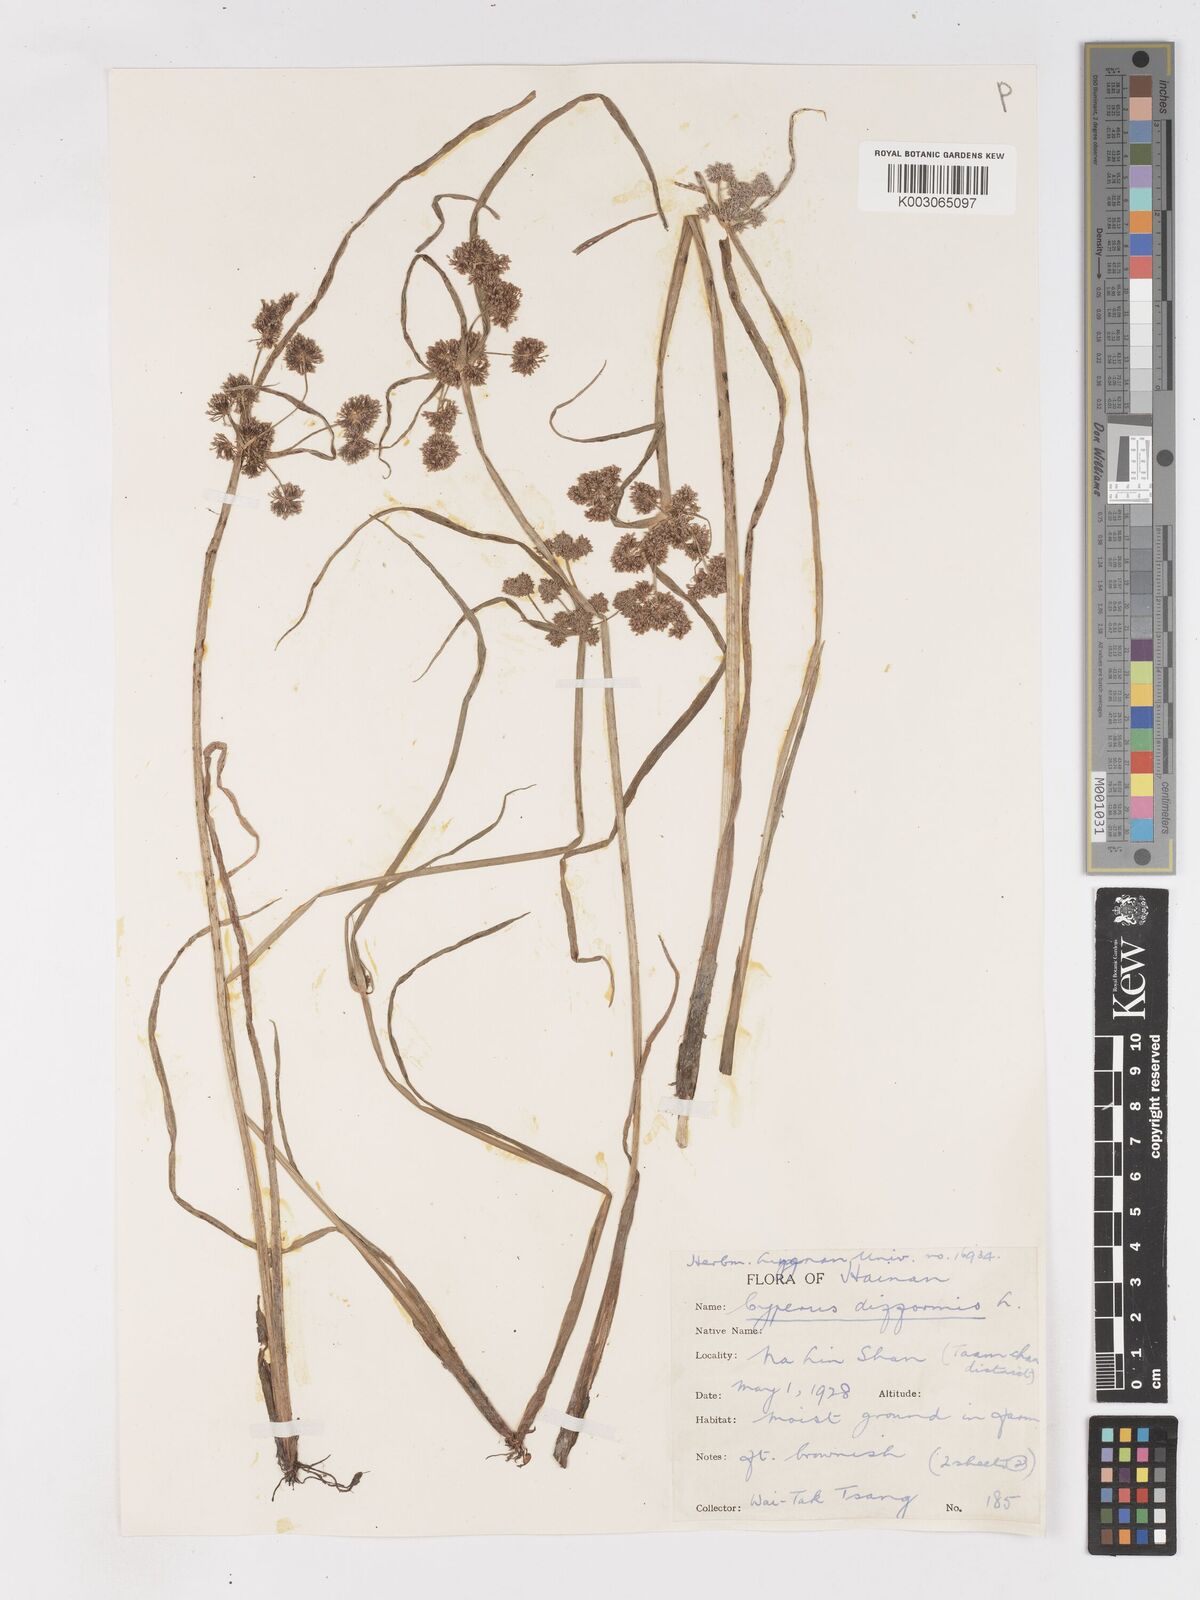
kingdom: Plantae
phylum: Tracheophyta
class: Liliopsida
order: Poales
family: Cyperaceae
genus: Cyperus
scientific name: Cyperus difformis
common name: Variable flatsedge
